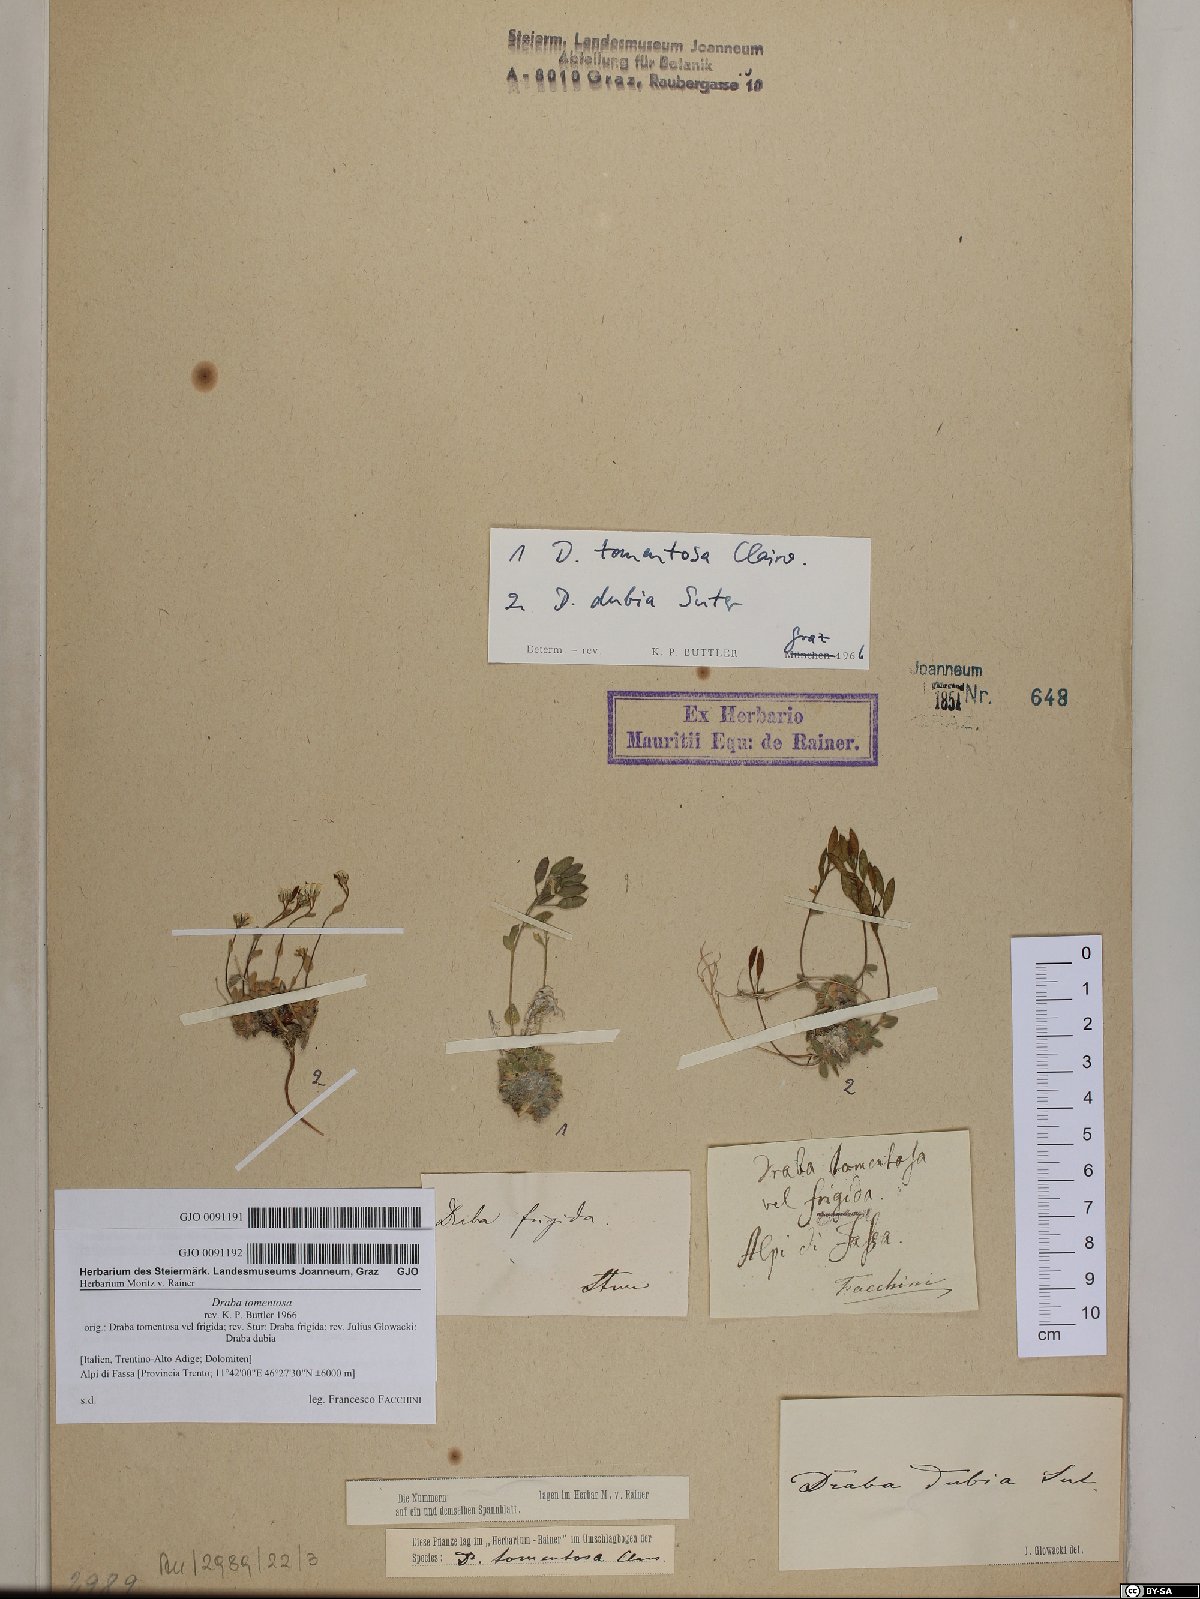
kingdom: Plantae
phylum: Tracheophyta
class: Magnoliopsida
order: Brassicales
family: Brassicaceae
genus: Draba
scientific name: Draba tomentosa
